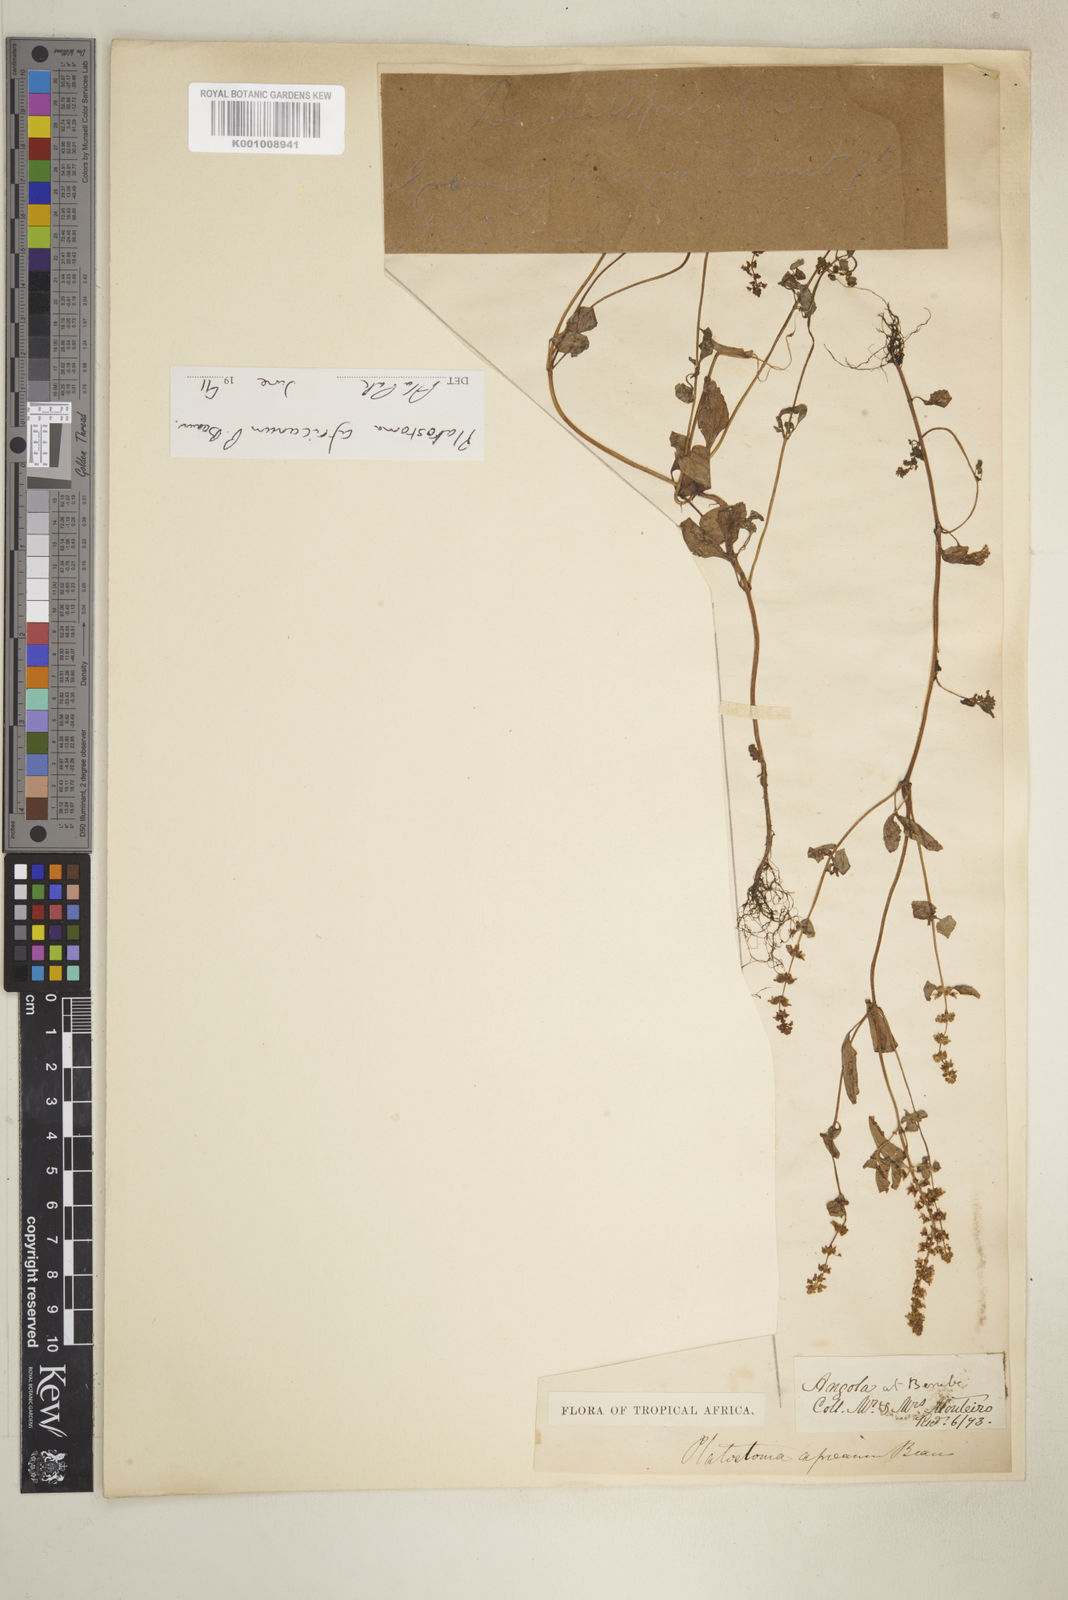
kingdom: Plantae
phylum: Tracheophyta
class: Magnoliopsida
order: Lamiales
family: Lamiaceae
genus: Platostoma
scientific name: Platostoma africanum
